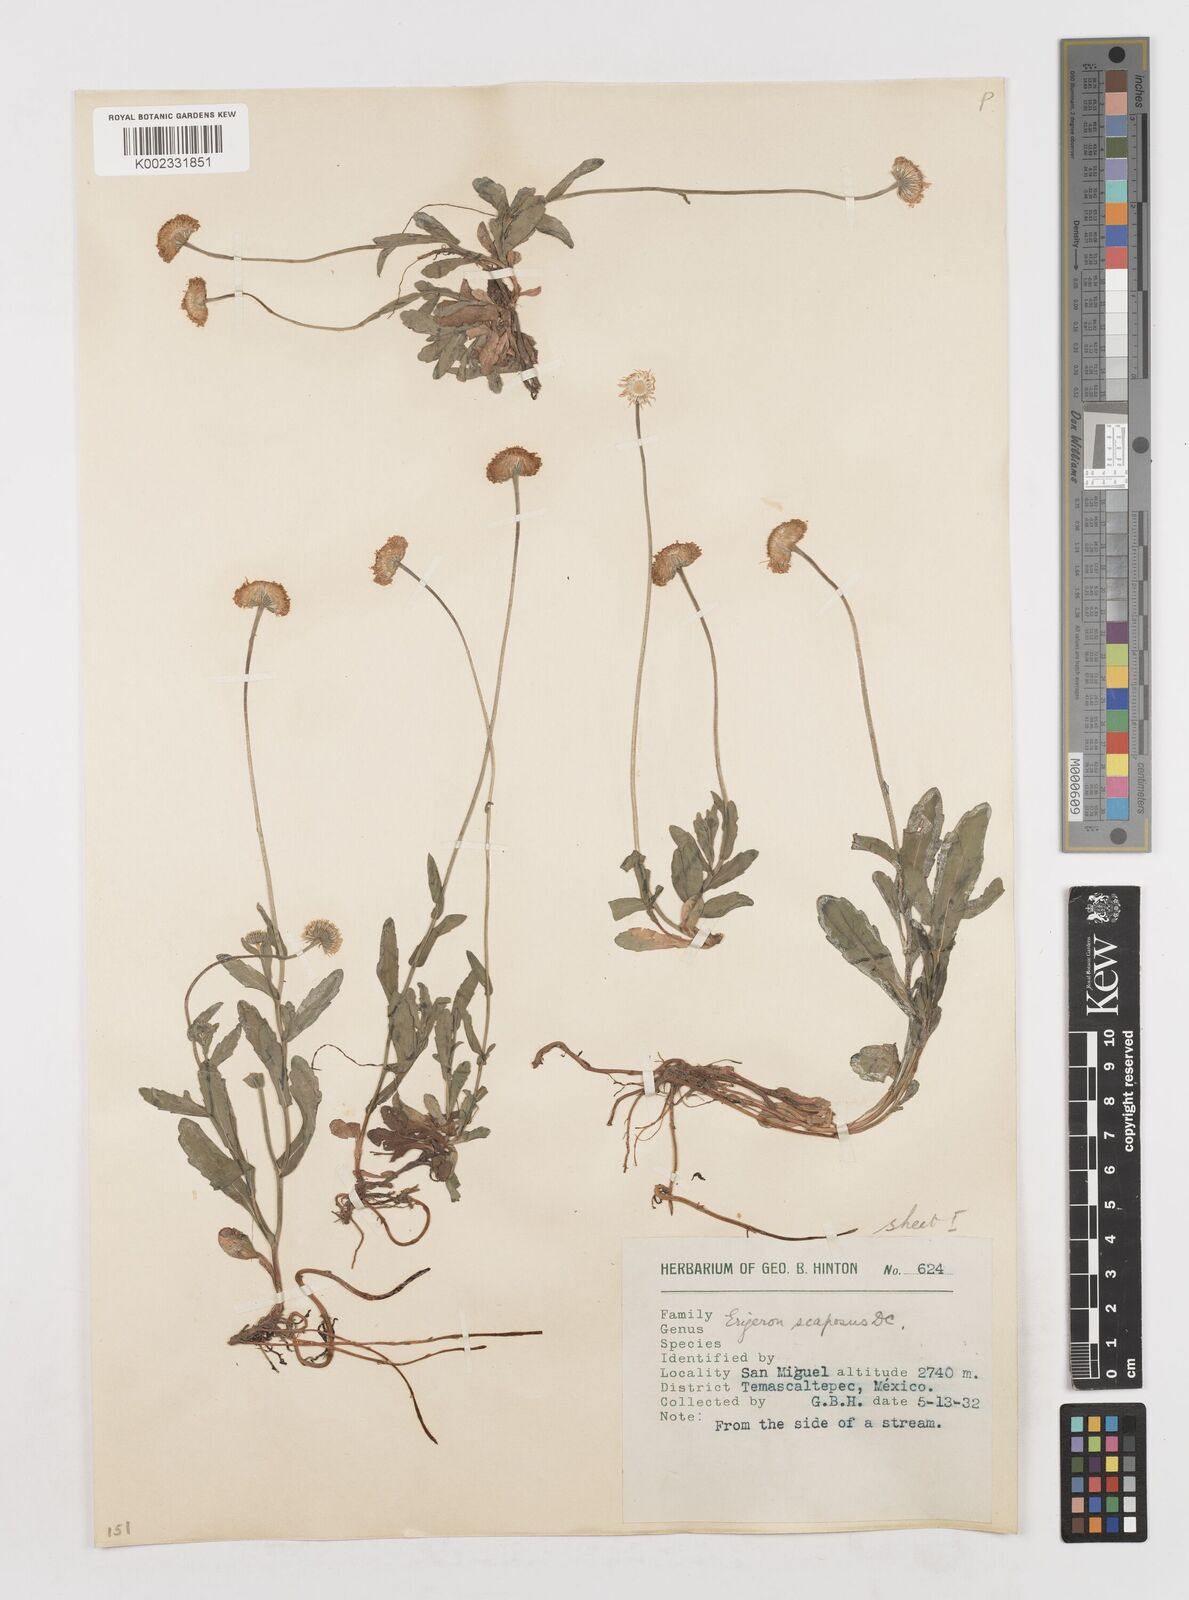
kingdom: Plantae
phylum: Tracheophyta
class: Magnoliopsida
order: Asterales
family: Asteraceae
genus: Erigeron
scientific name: Erigeron longipes
